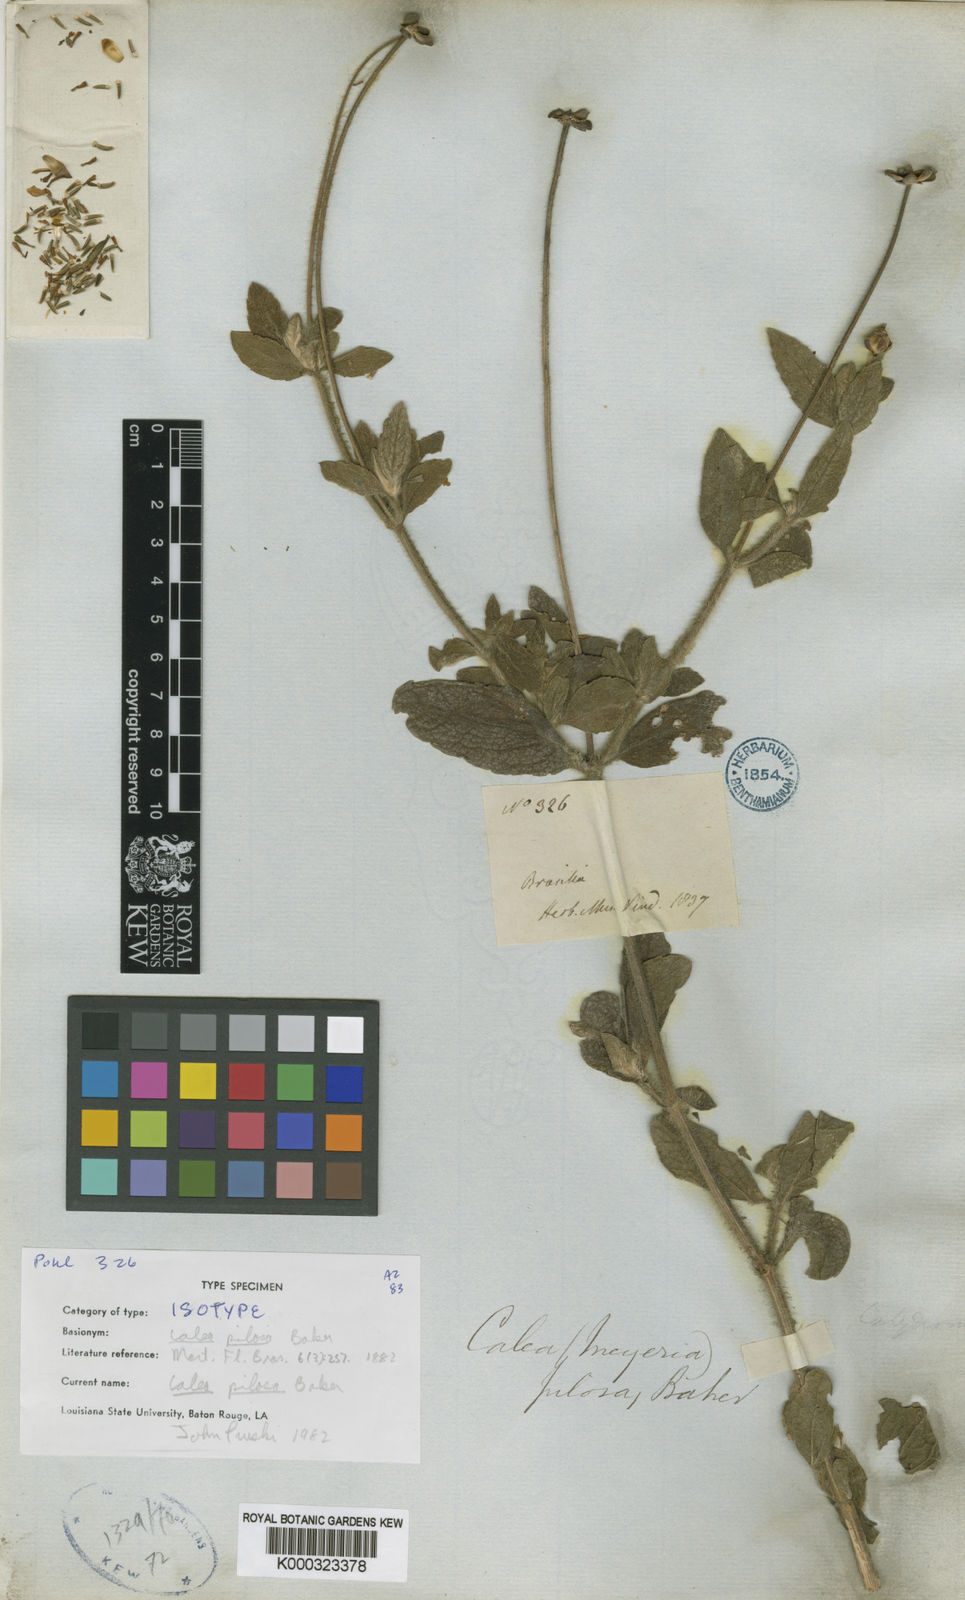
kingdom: Plantae
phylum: Tracheophyta
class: Magnoliopsida
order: Asterales
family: Asteraceae
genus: Calea
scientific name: Calea pilosa
